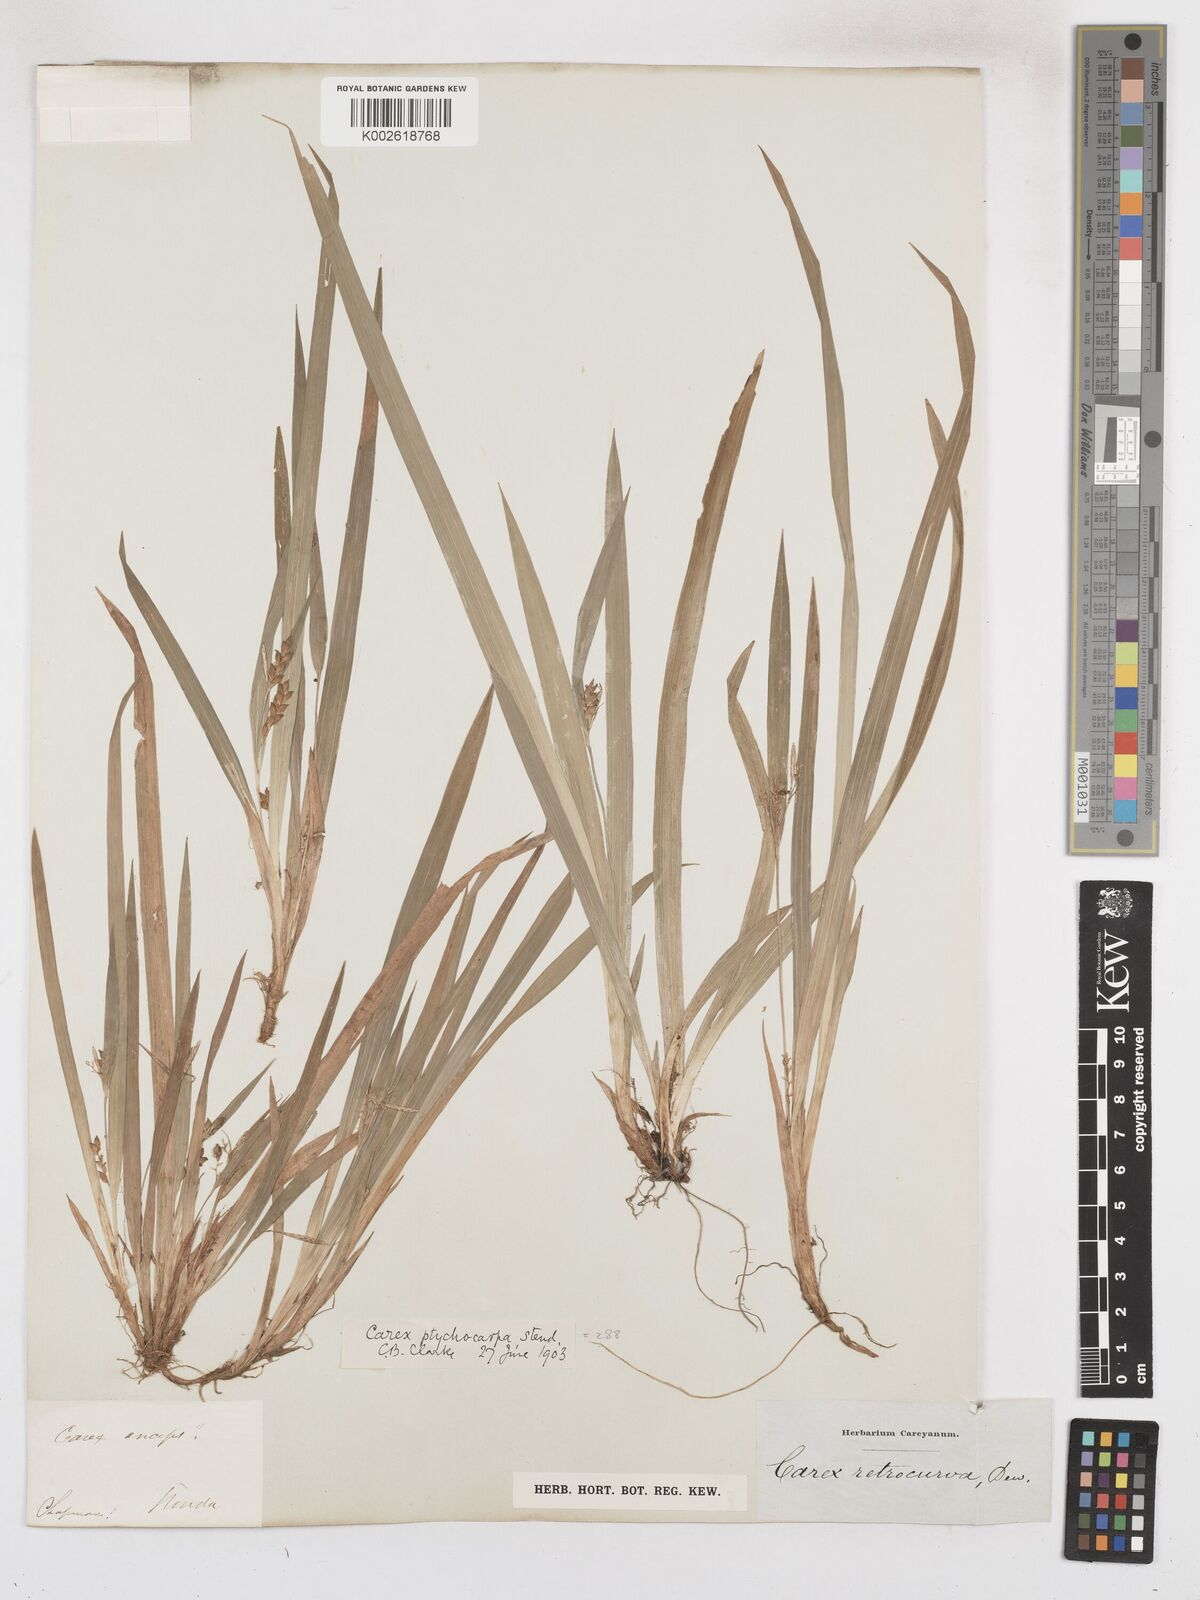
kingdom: Plantae
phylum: Tracheophyta
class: Liliopsida
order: Poales
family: Cyperaceae
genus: Carex
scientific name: Carex abscondita
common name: Thicket sedge
